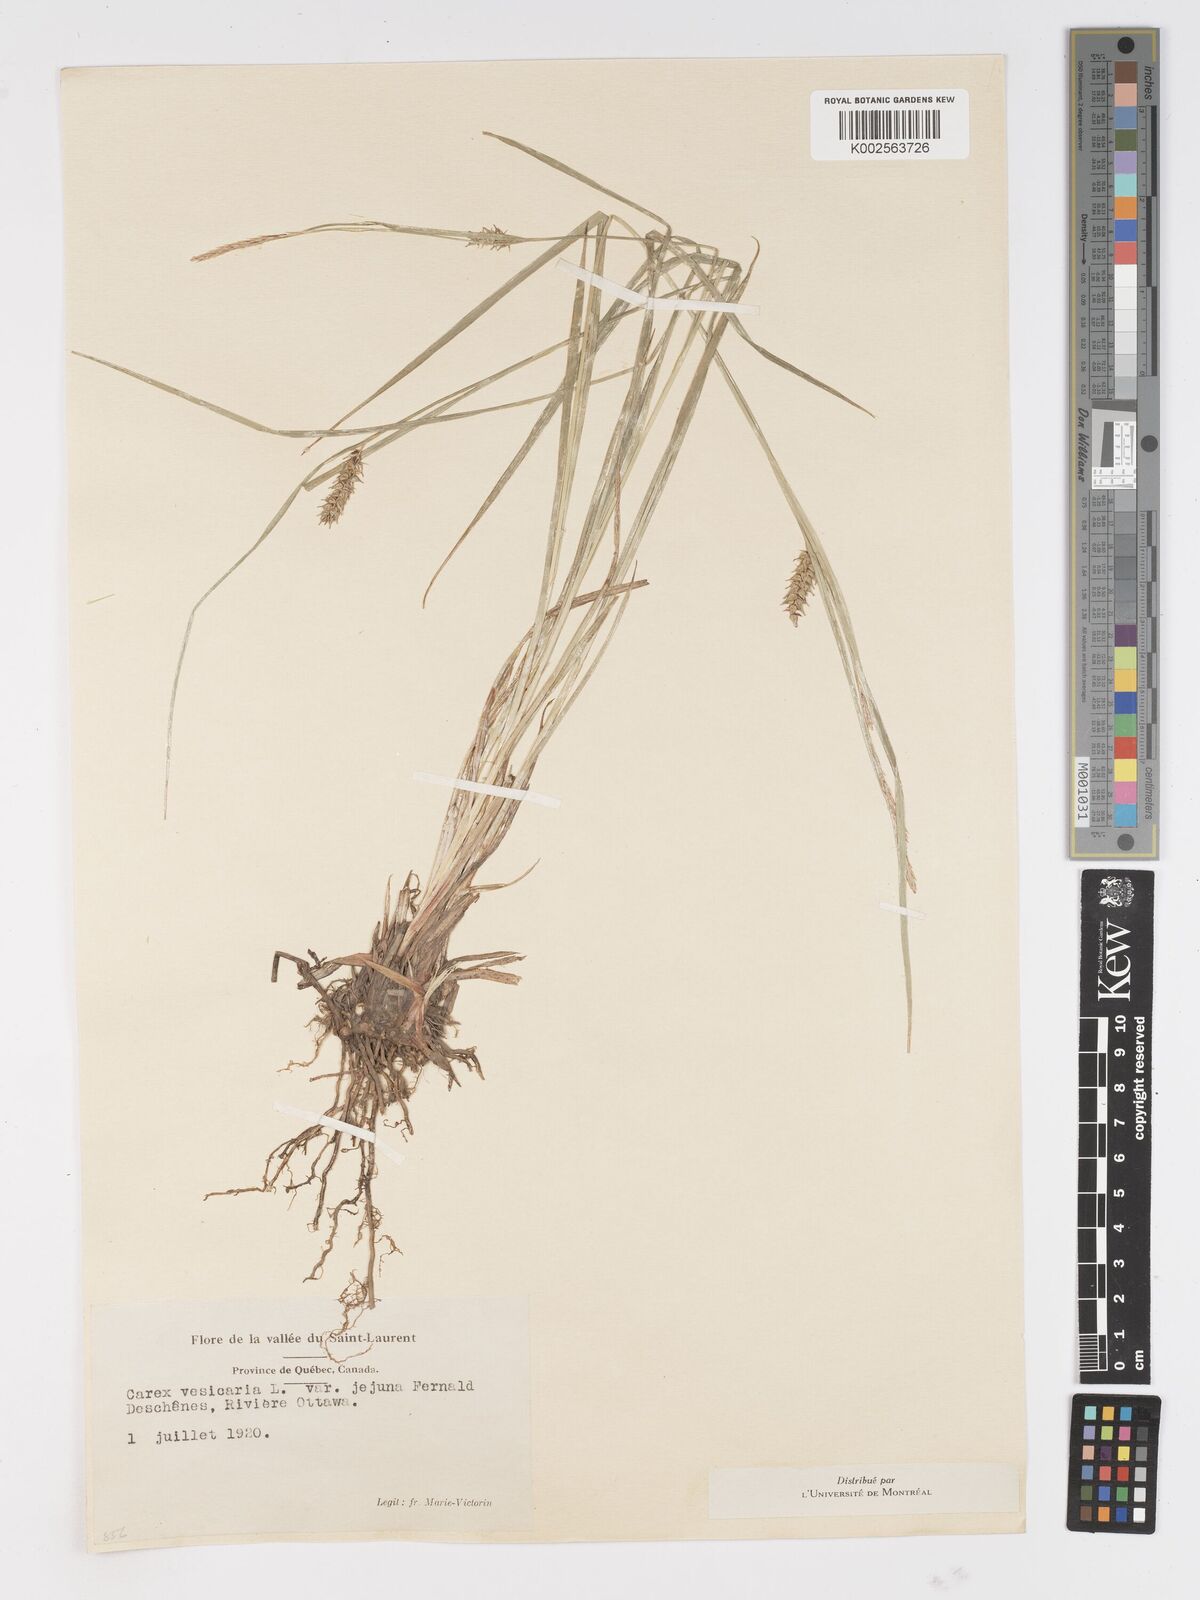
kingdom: Plantae
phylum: Tracheophyta
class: Liliopsida
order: Poales
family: Cyperaceae
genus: Carex
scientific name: Carex vesicaria
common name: Bladder-sedge
